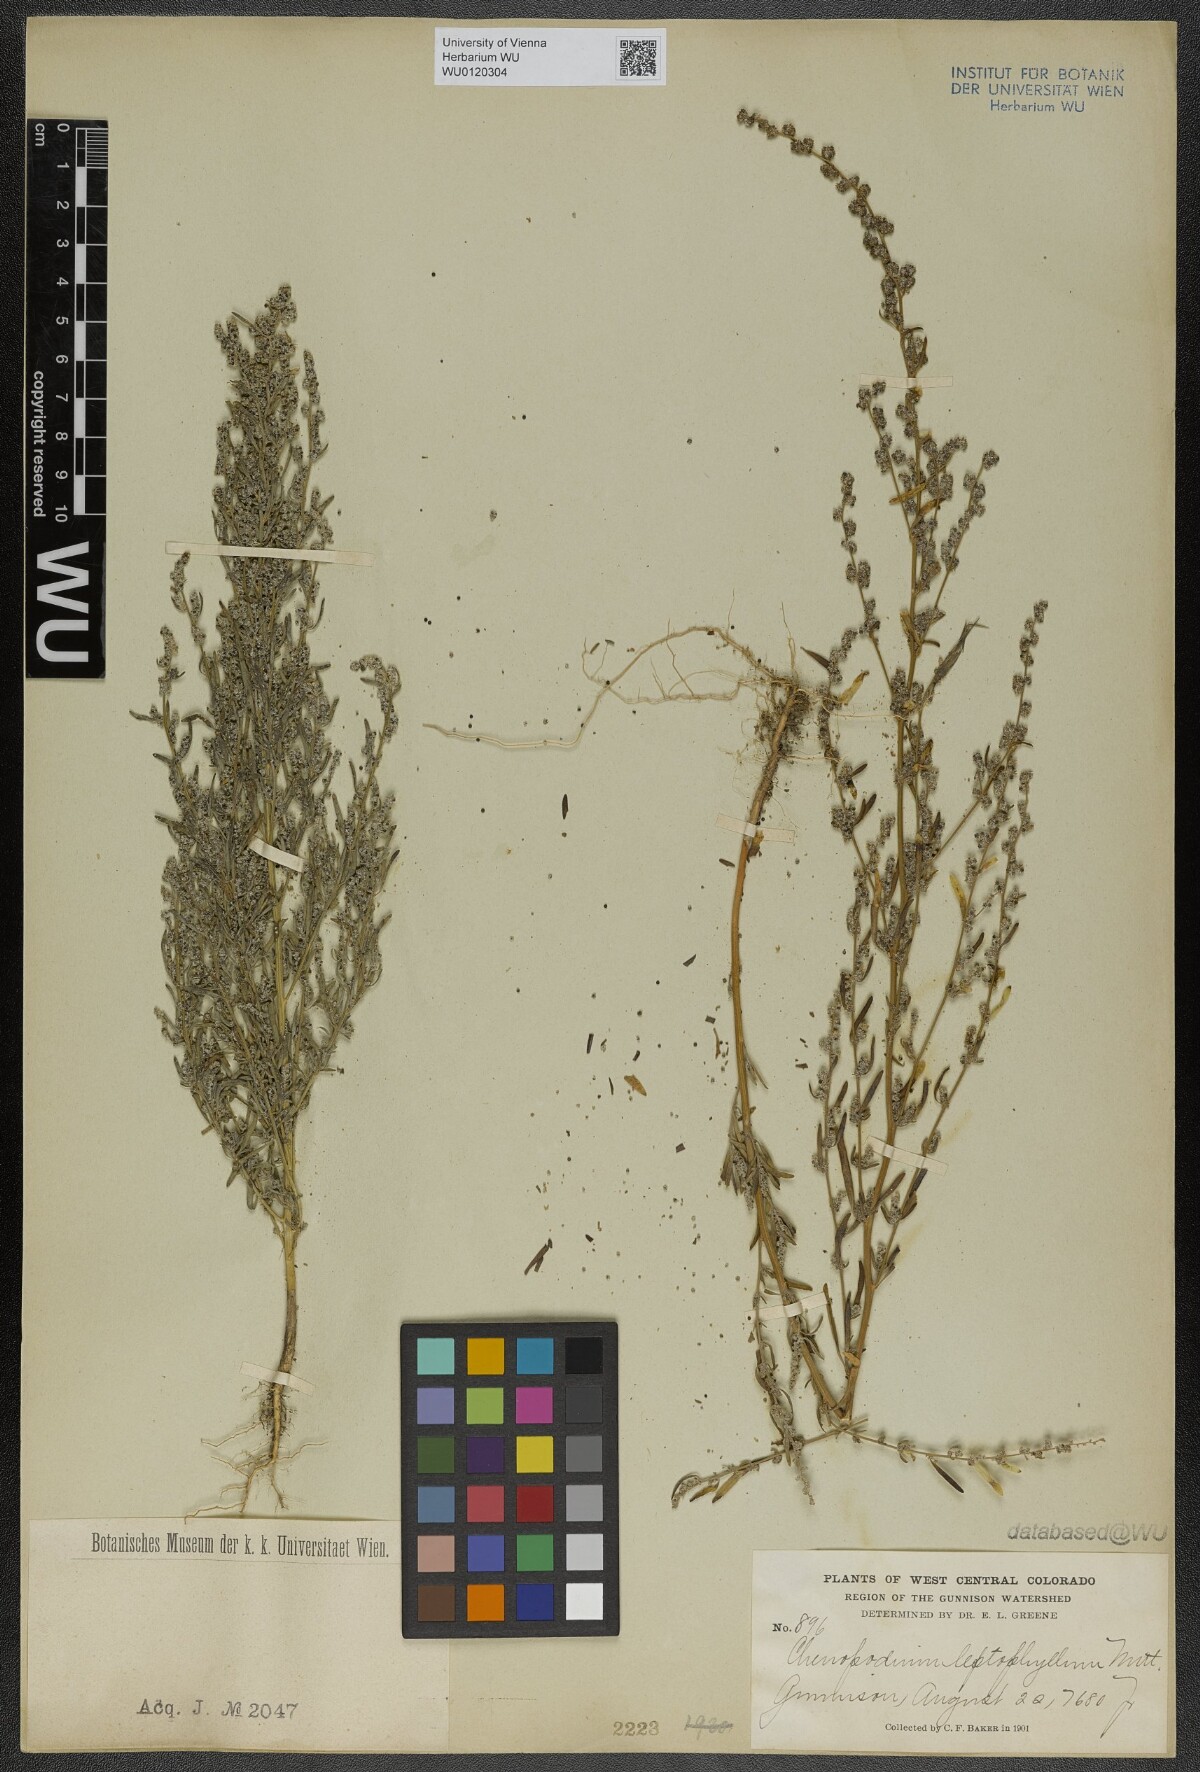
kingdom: Plantae
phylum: Tracheophyta
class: Magnoliopsida
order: Caryophyllales
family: Amaranthaceae
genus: Chenopodium
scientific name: Chenopodium leptophyllum
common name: Narrow-leaf goosefoot
